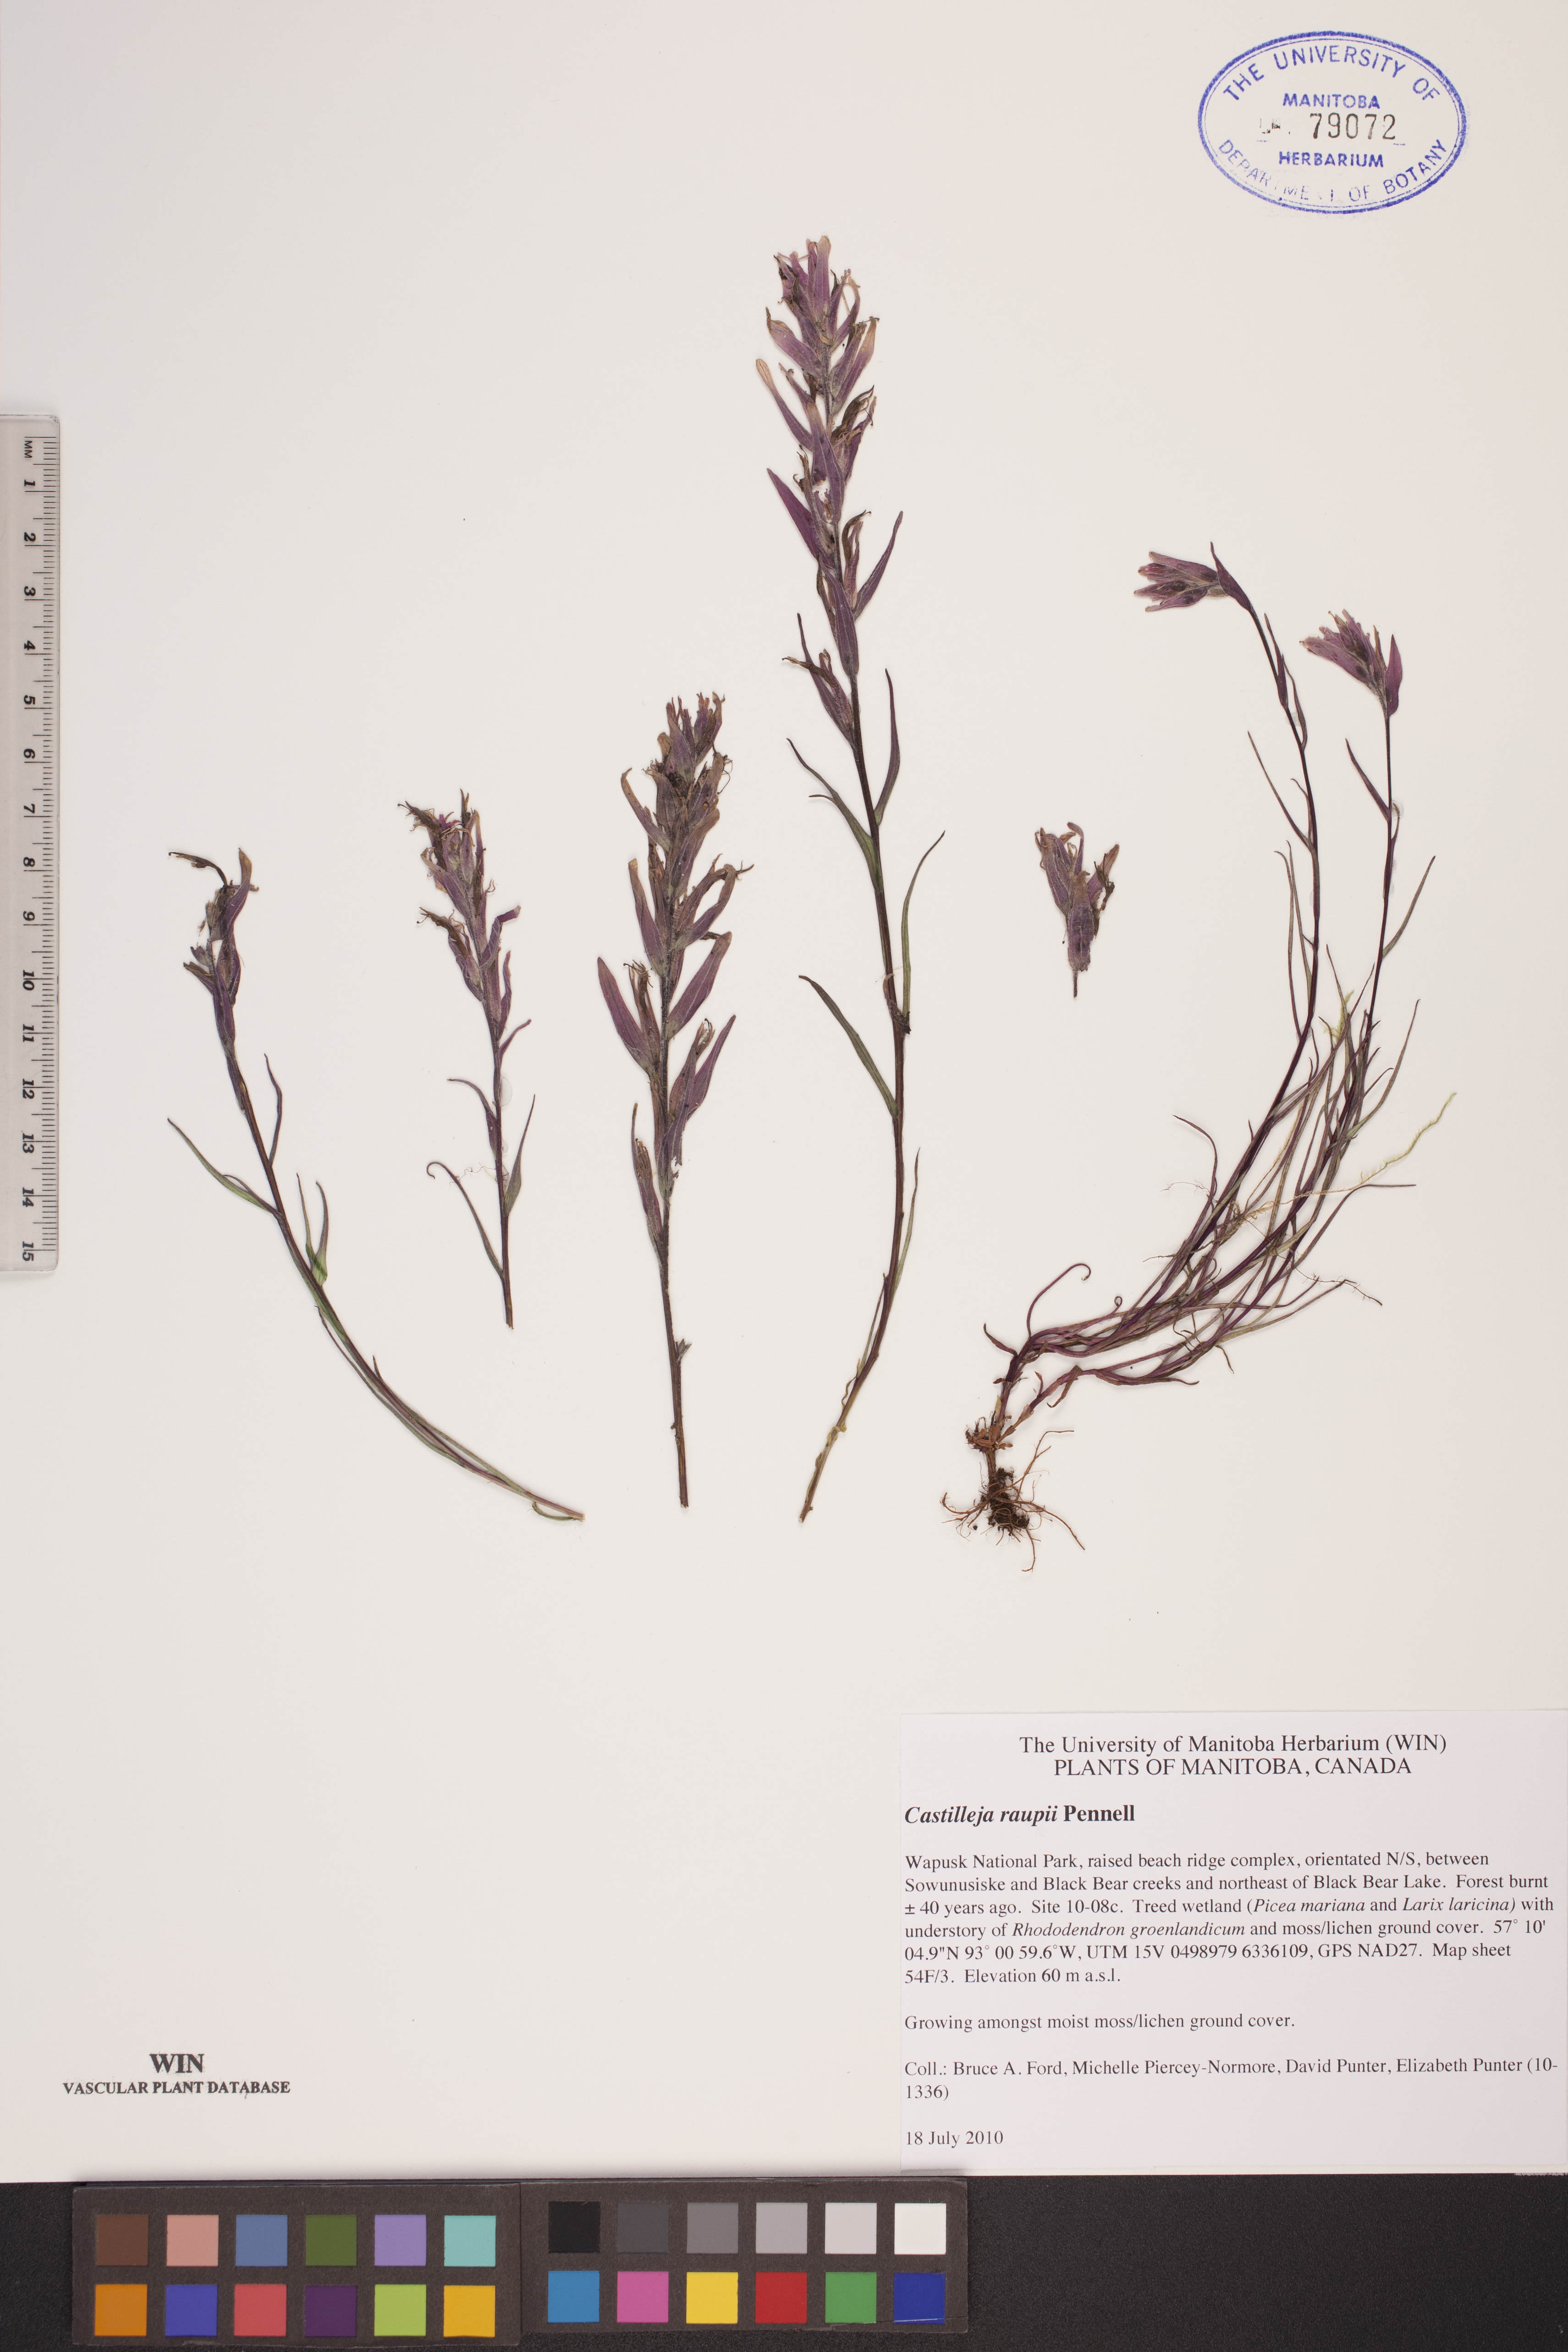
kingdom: Plantae
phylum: Tracheophyta
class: Magnoliopsida
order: Lamiales
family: Orobanchaceae
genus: Castilleja
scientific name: Castilleja raupii
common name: Raup's paintbrush
